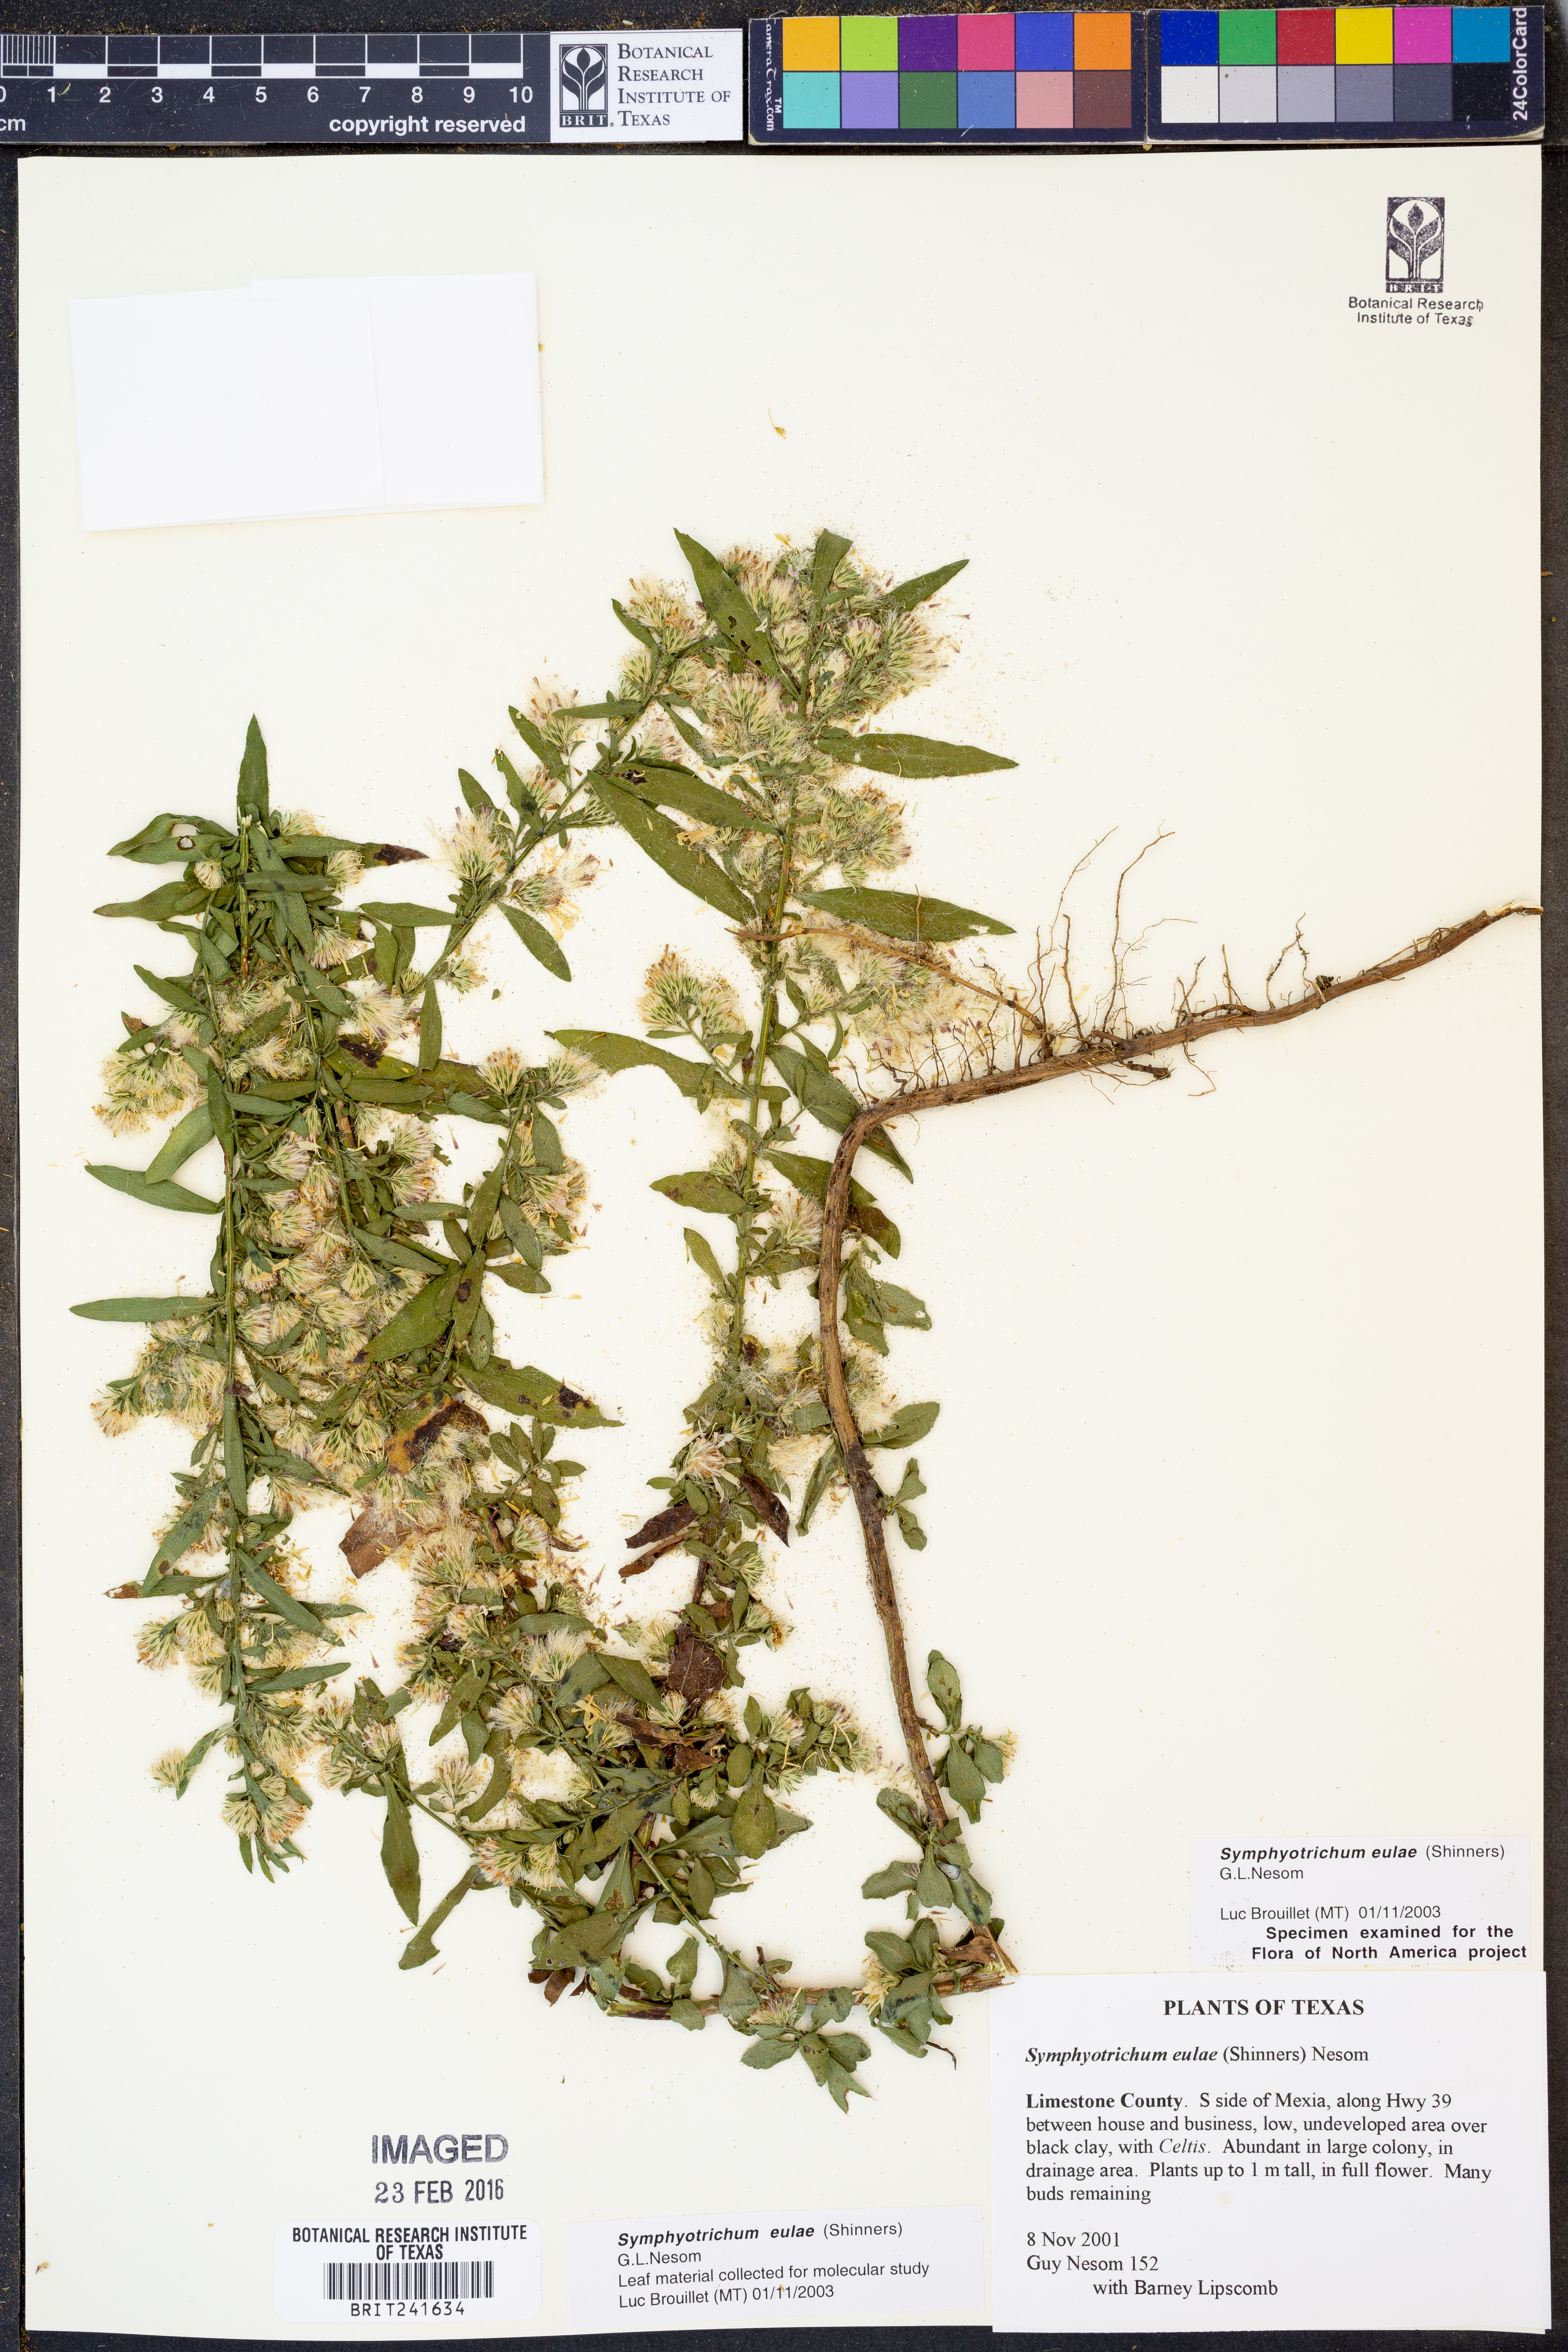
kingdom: Plantae
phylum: Tracheophyta
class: Magnoliopsida
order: Asterales
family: Asteraceae
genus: Symphyotrichum
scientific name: Symphyotrichum eulae
